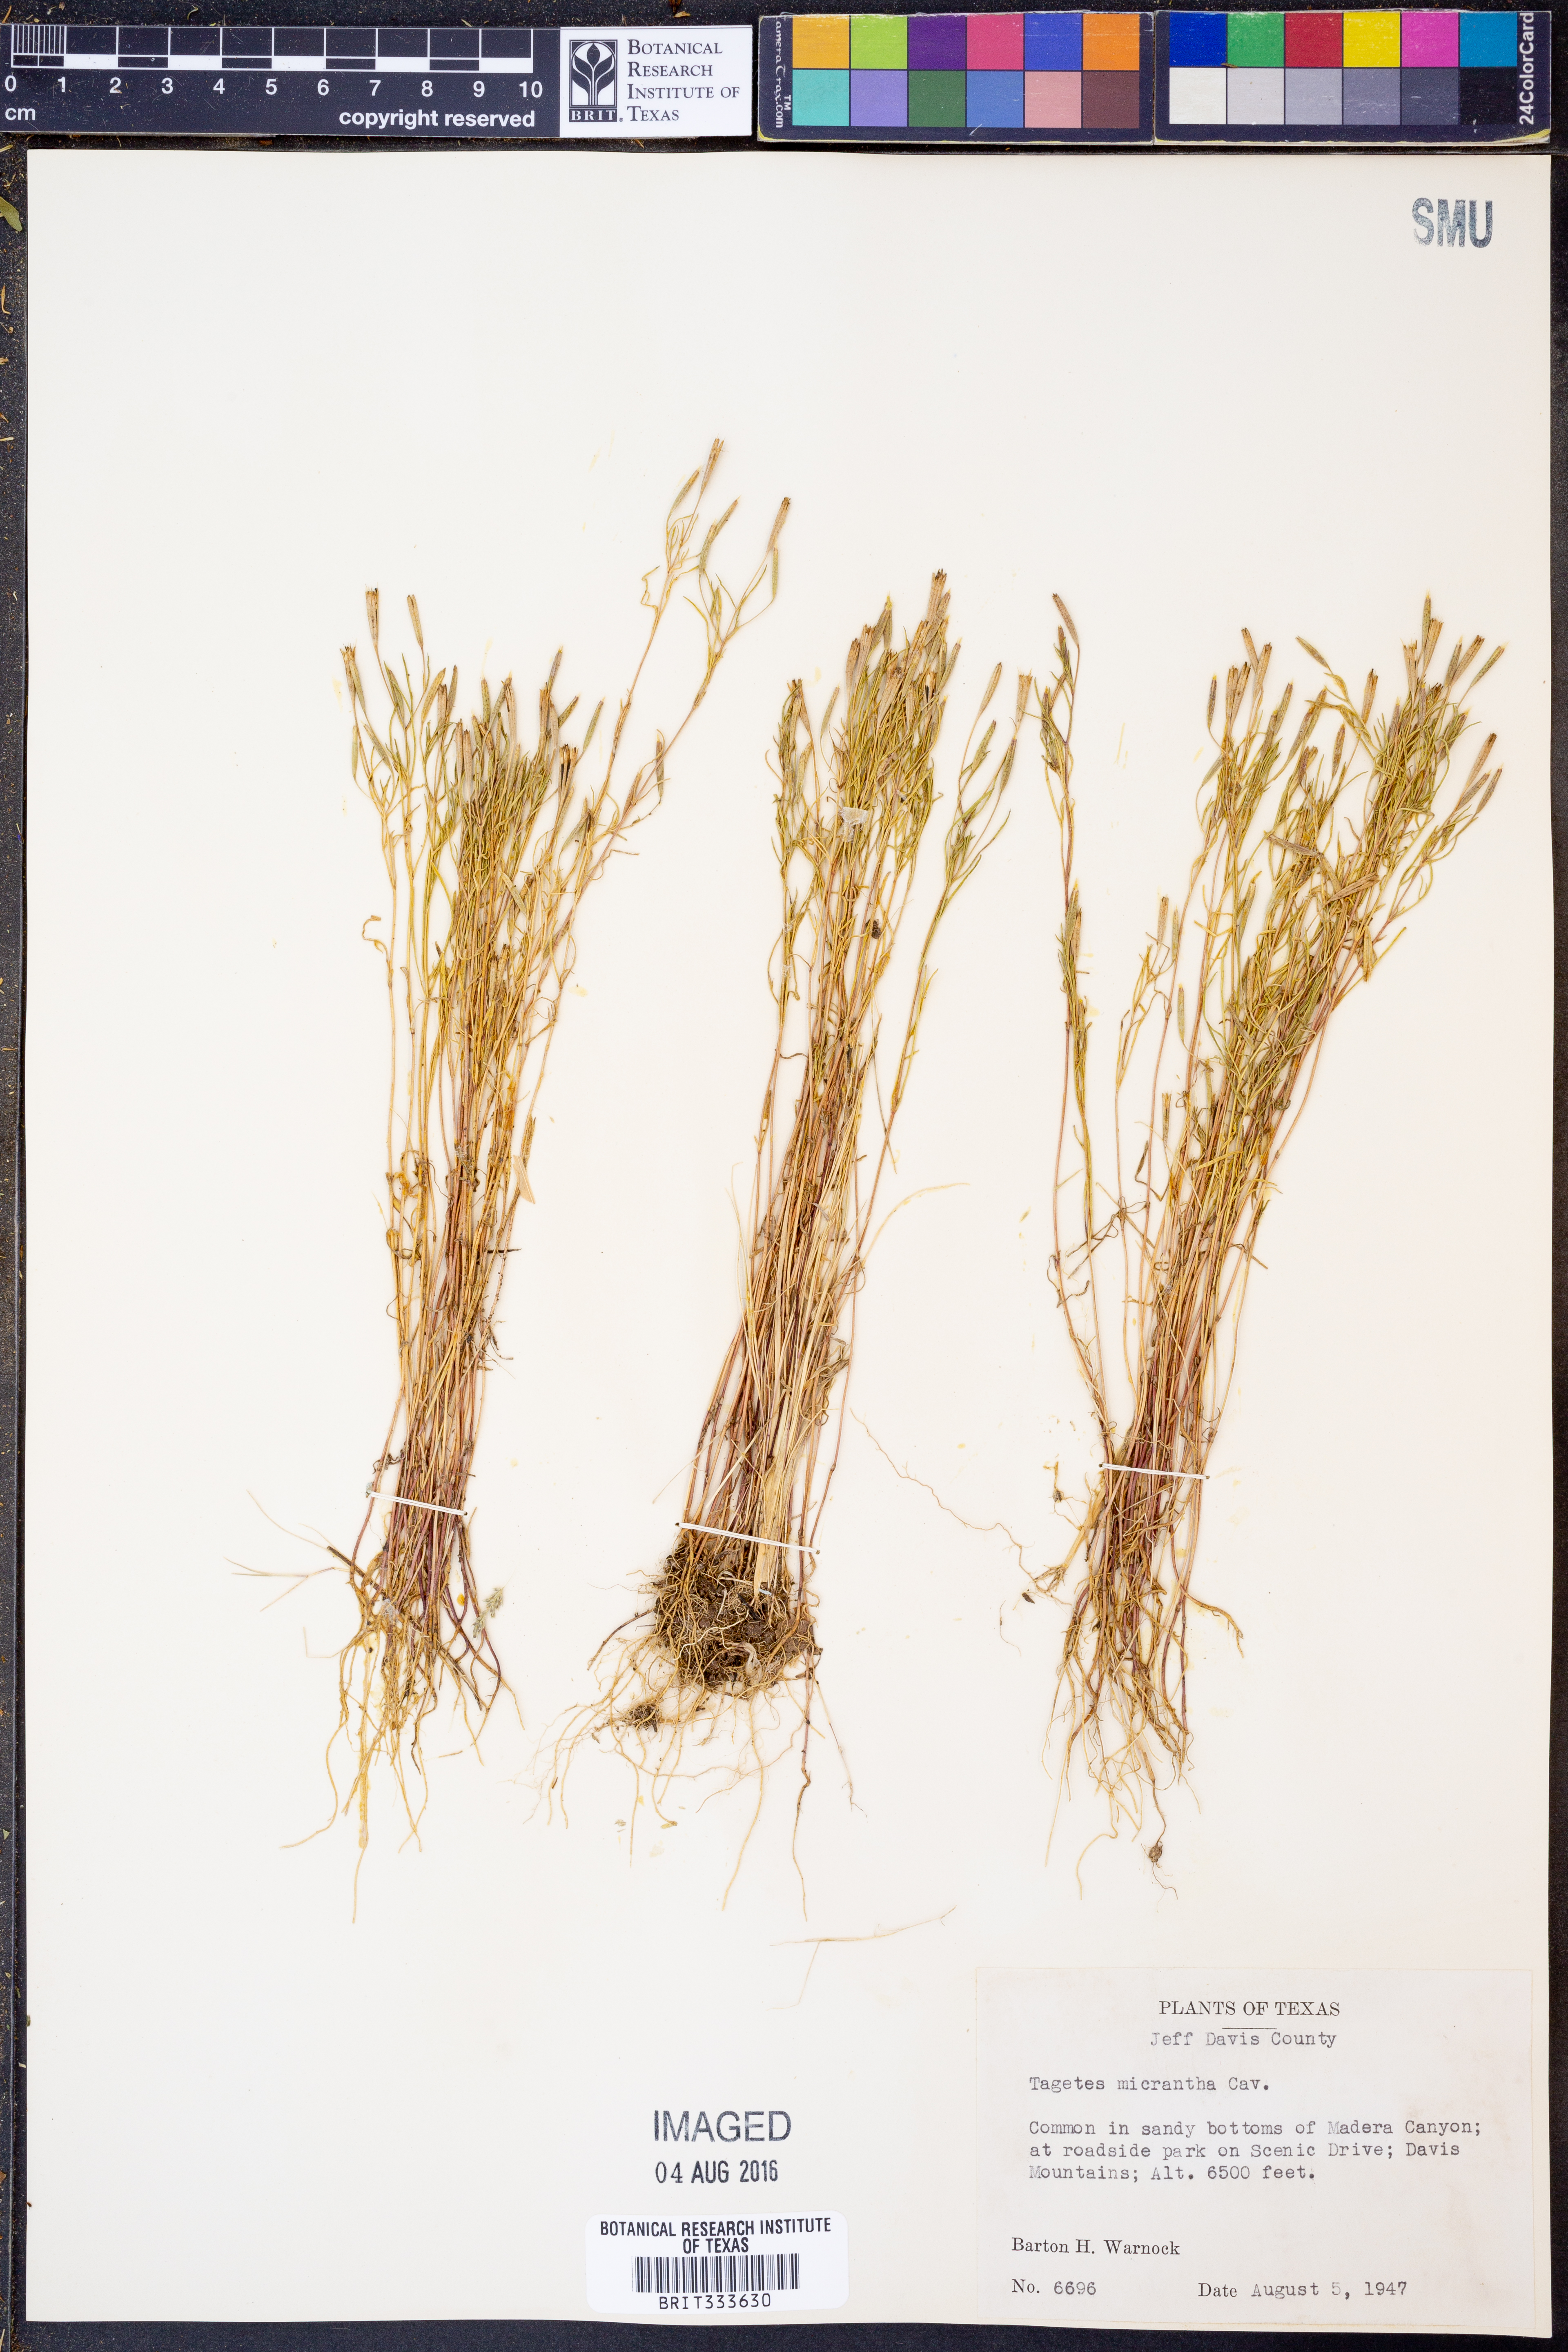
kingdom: Plantae
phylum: Tracheophyta
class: Magnoliopsida
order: Asterales
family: Asteraceae
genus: Tagetes
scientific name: Tagetes micrantha
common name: Licorice marigold
